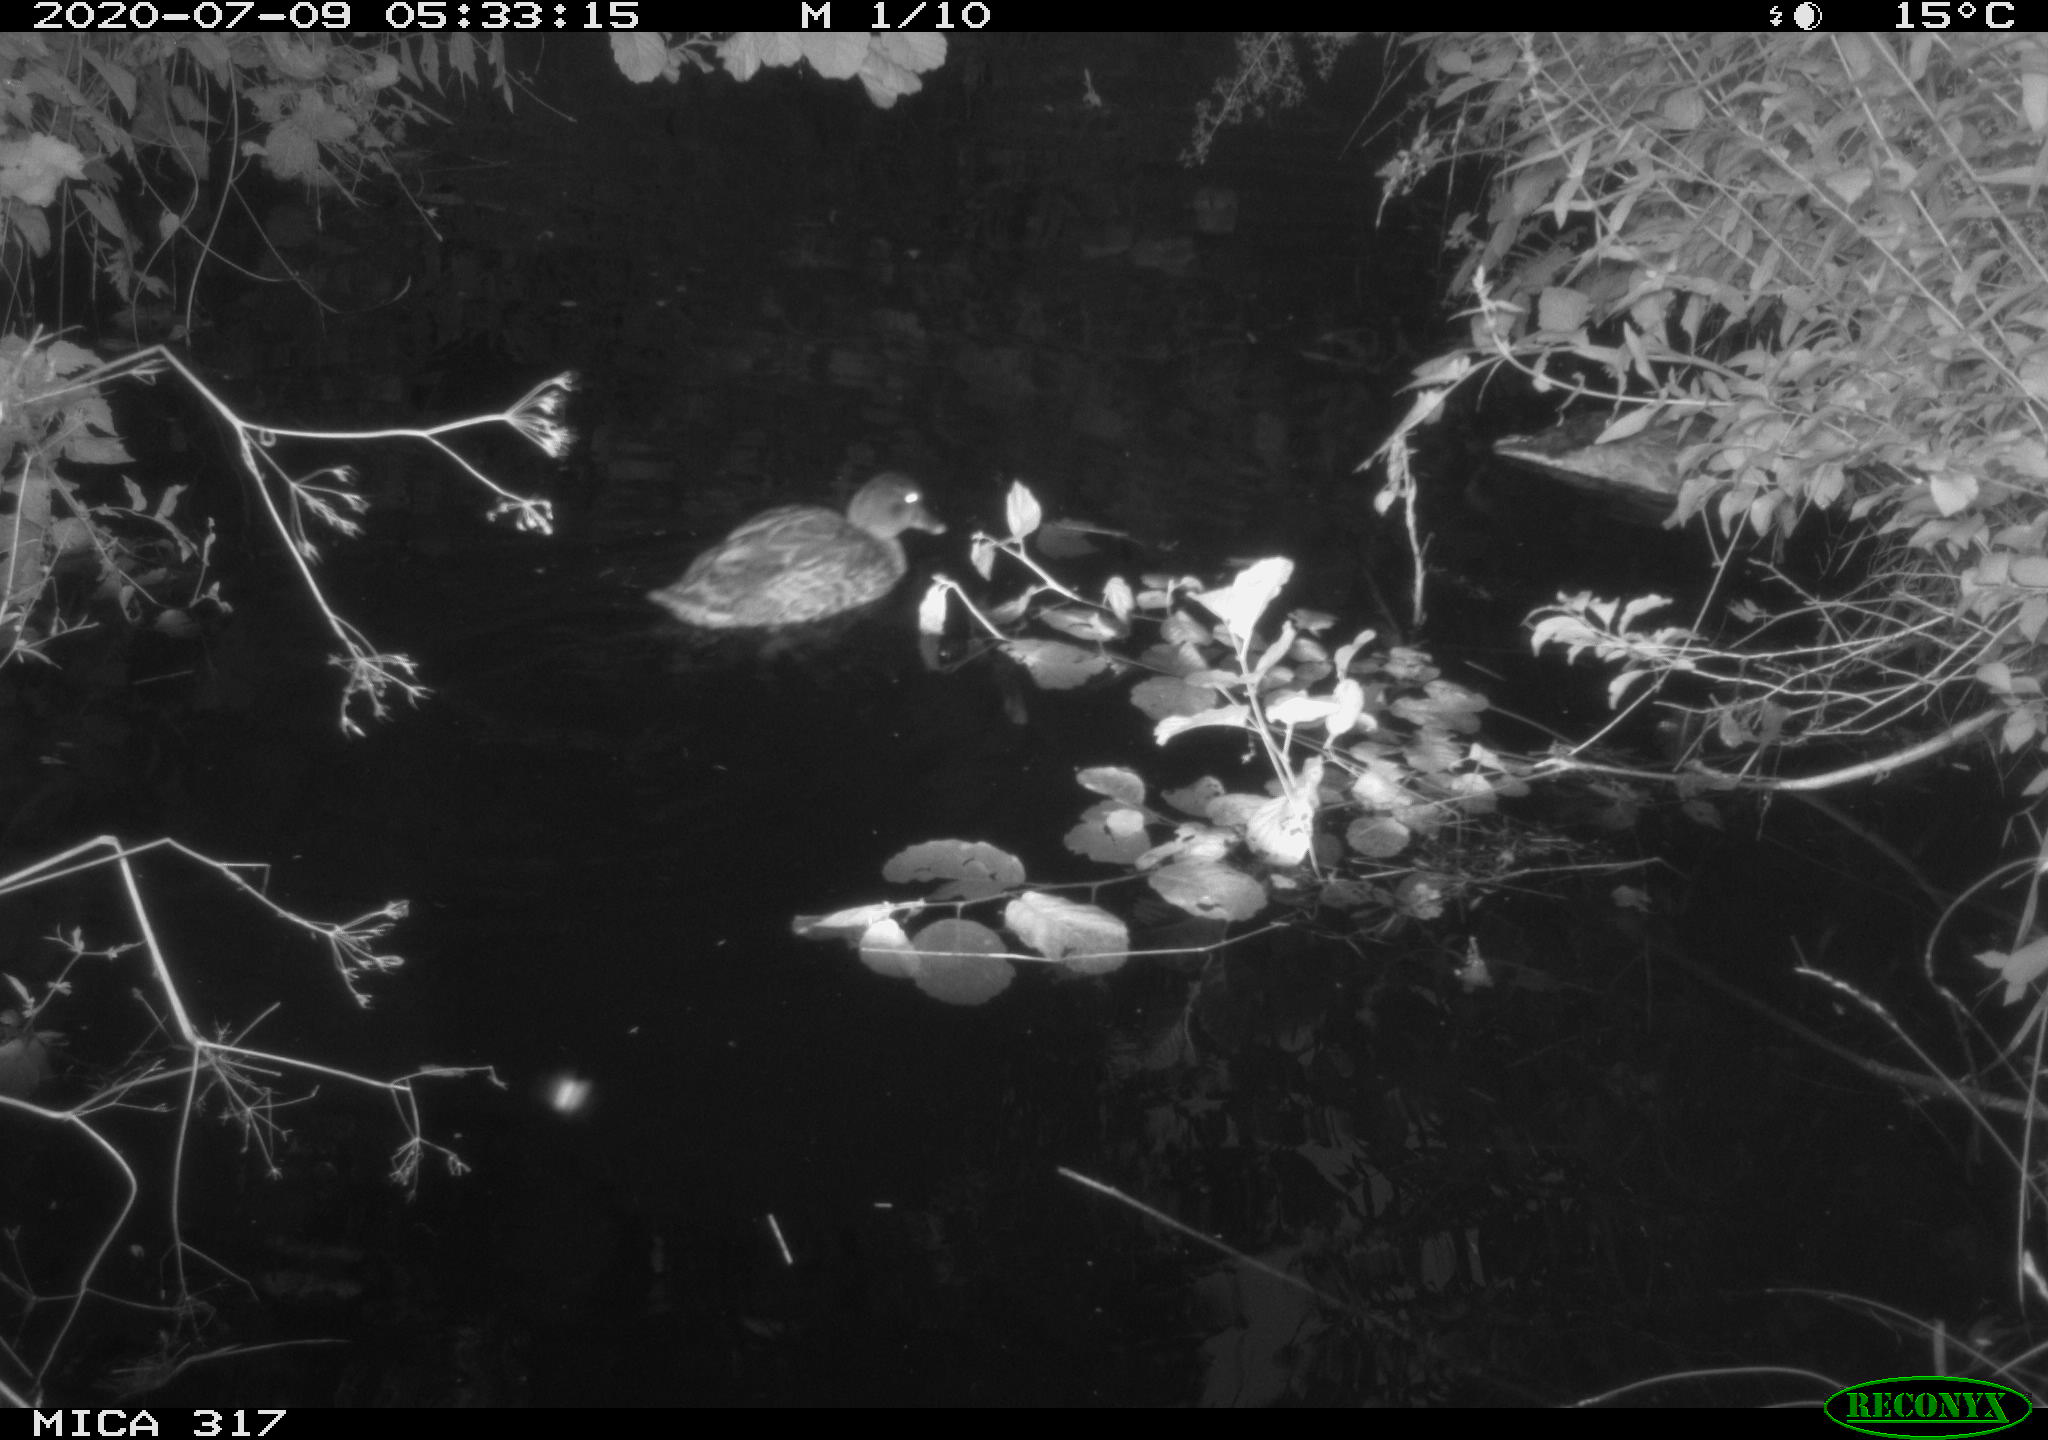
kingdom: Animalia
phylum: Chordata
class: Aves
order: Anseriformes
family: Anatidae
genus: Anas
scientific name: Anas platyrhynchos
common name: Mallard
